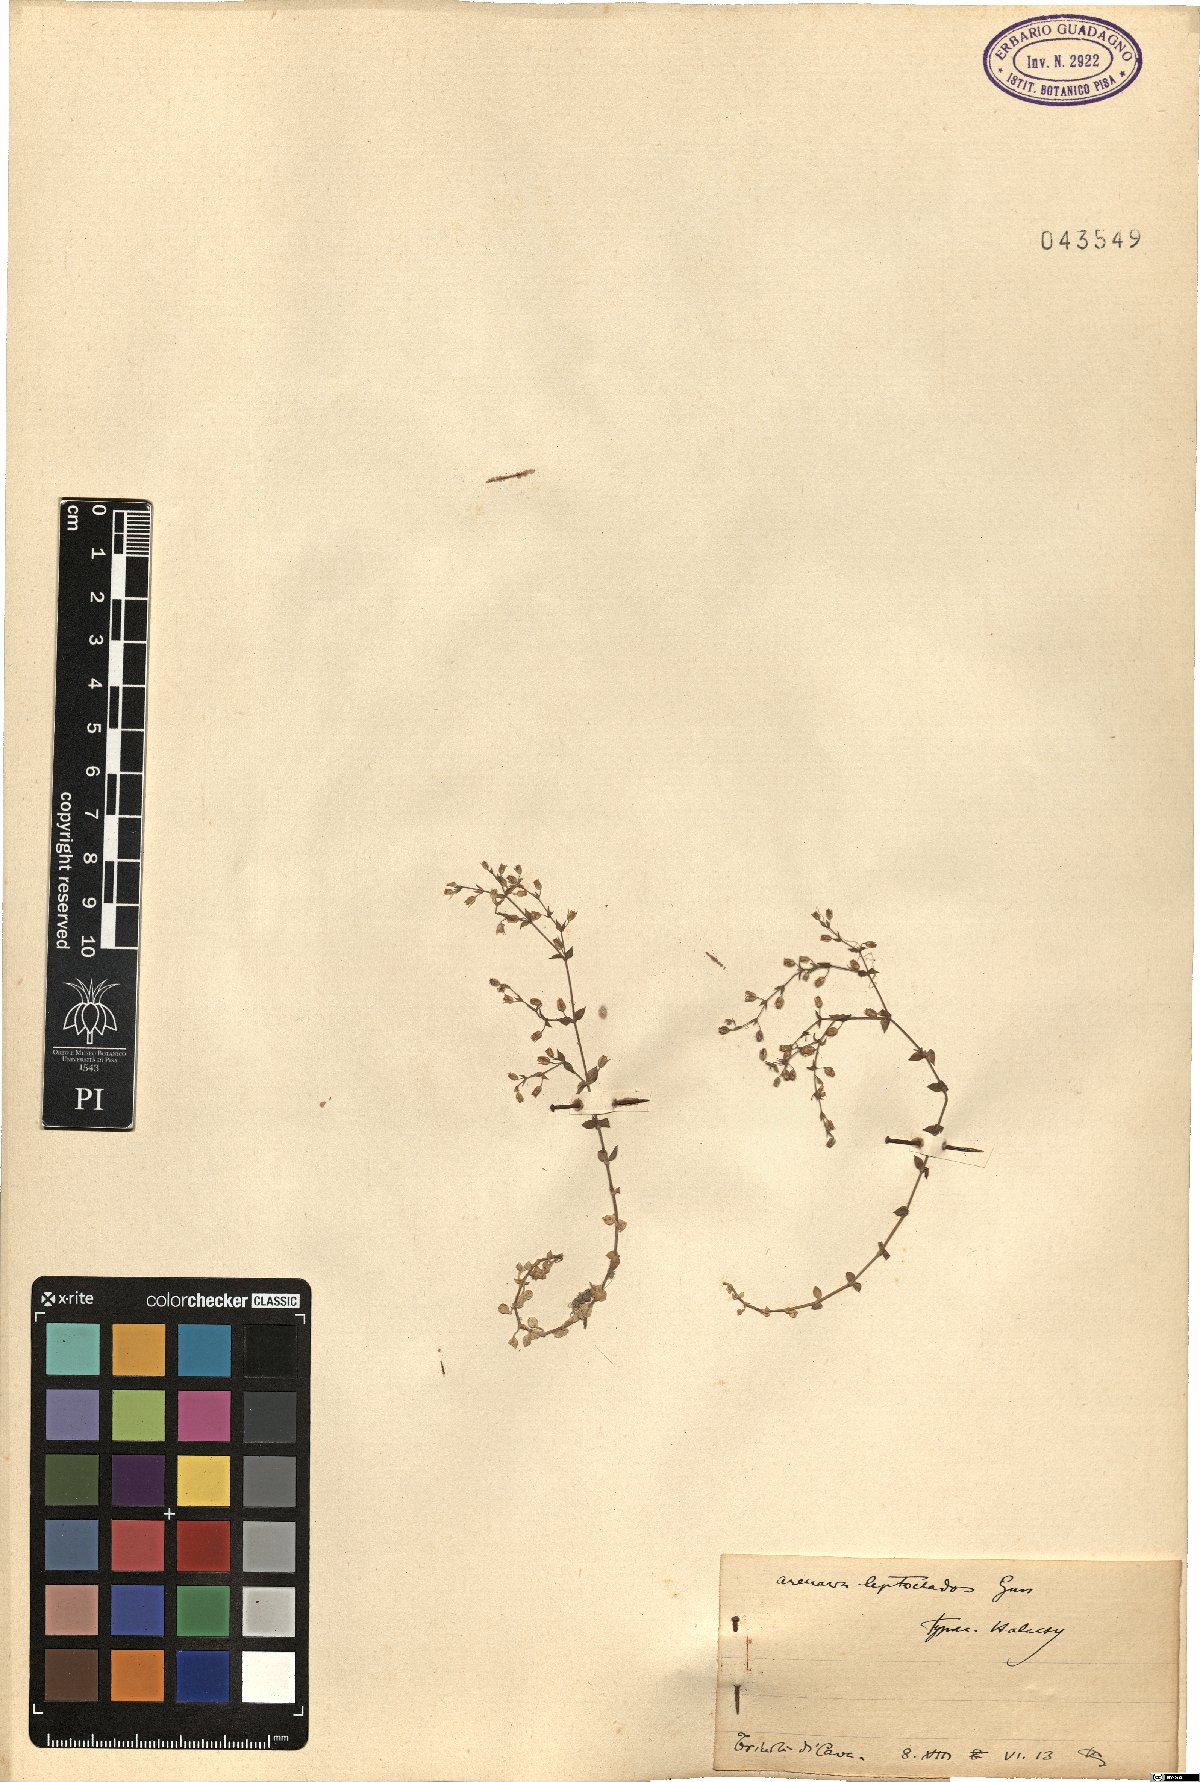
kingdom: Plantae
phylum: Tracheophyta
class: Magnoliopsida
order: Caryophyllales
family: Caryophyllaceae
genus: Arenaria
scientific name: Arenaria leptoclados
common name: Thyme-leaved sandwort
